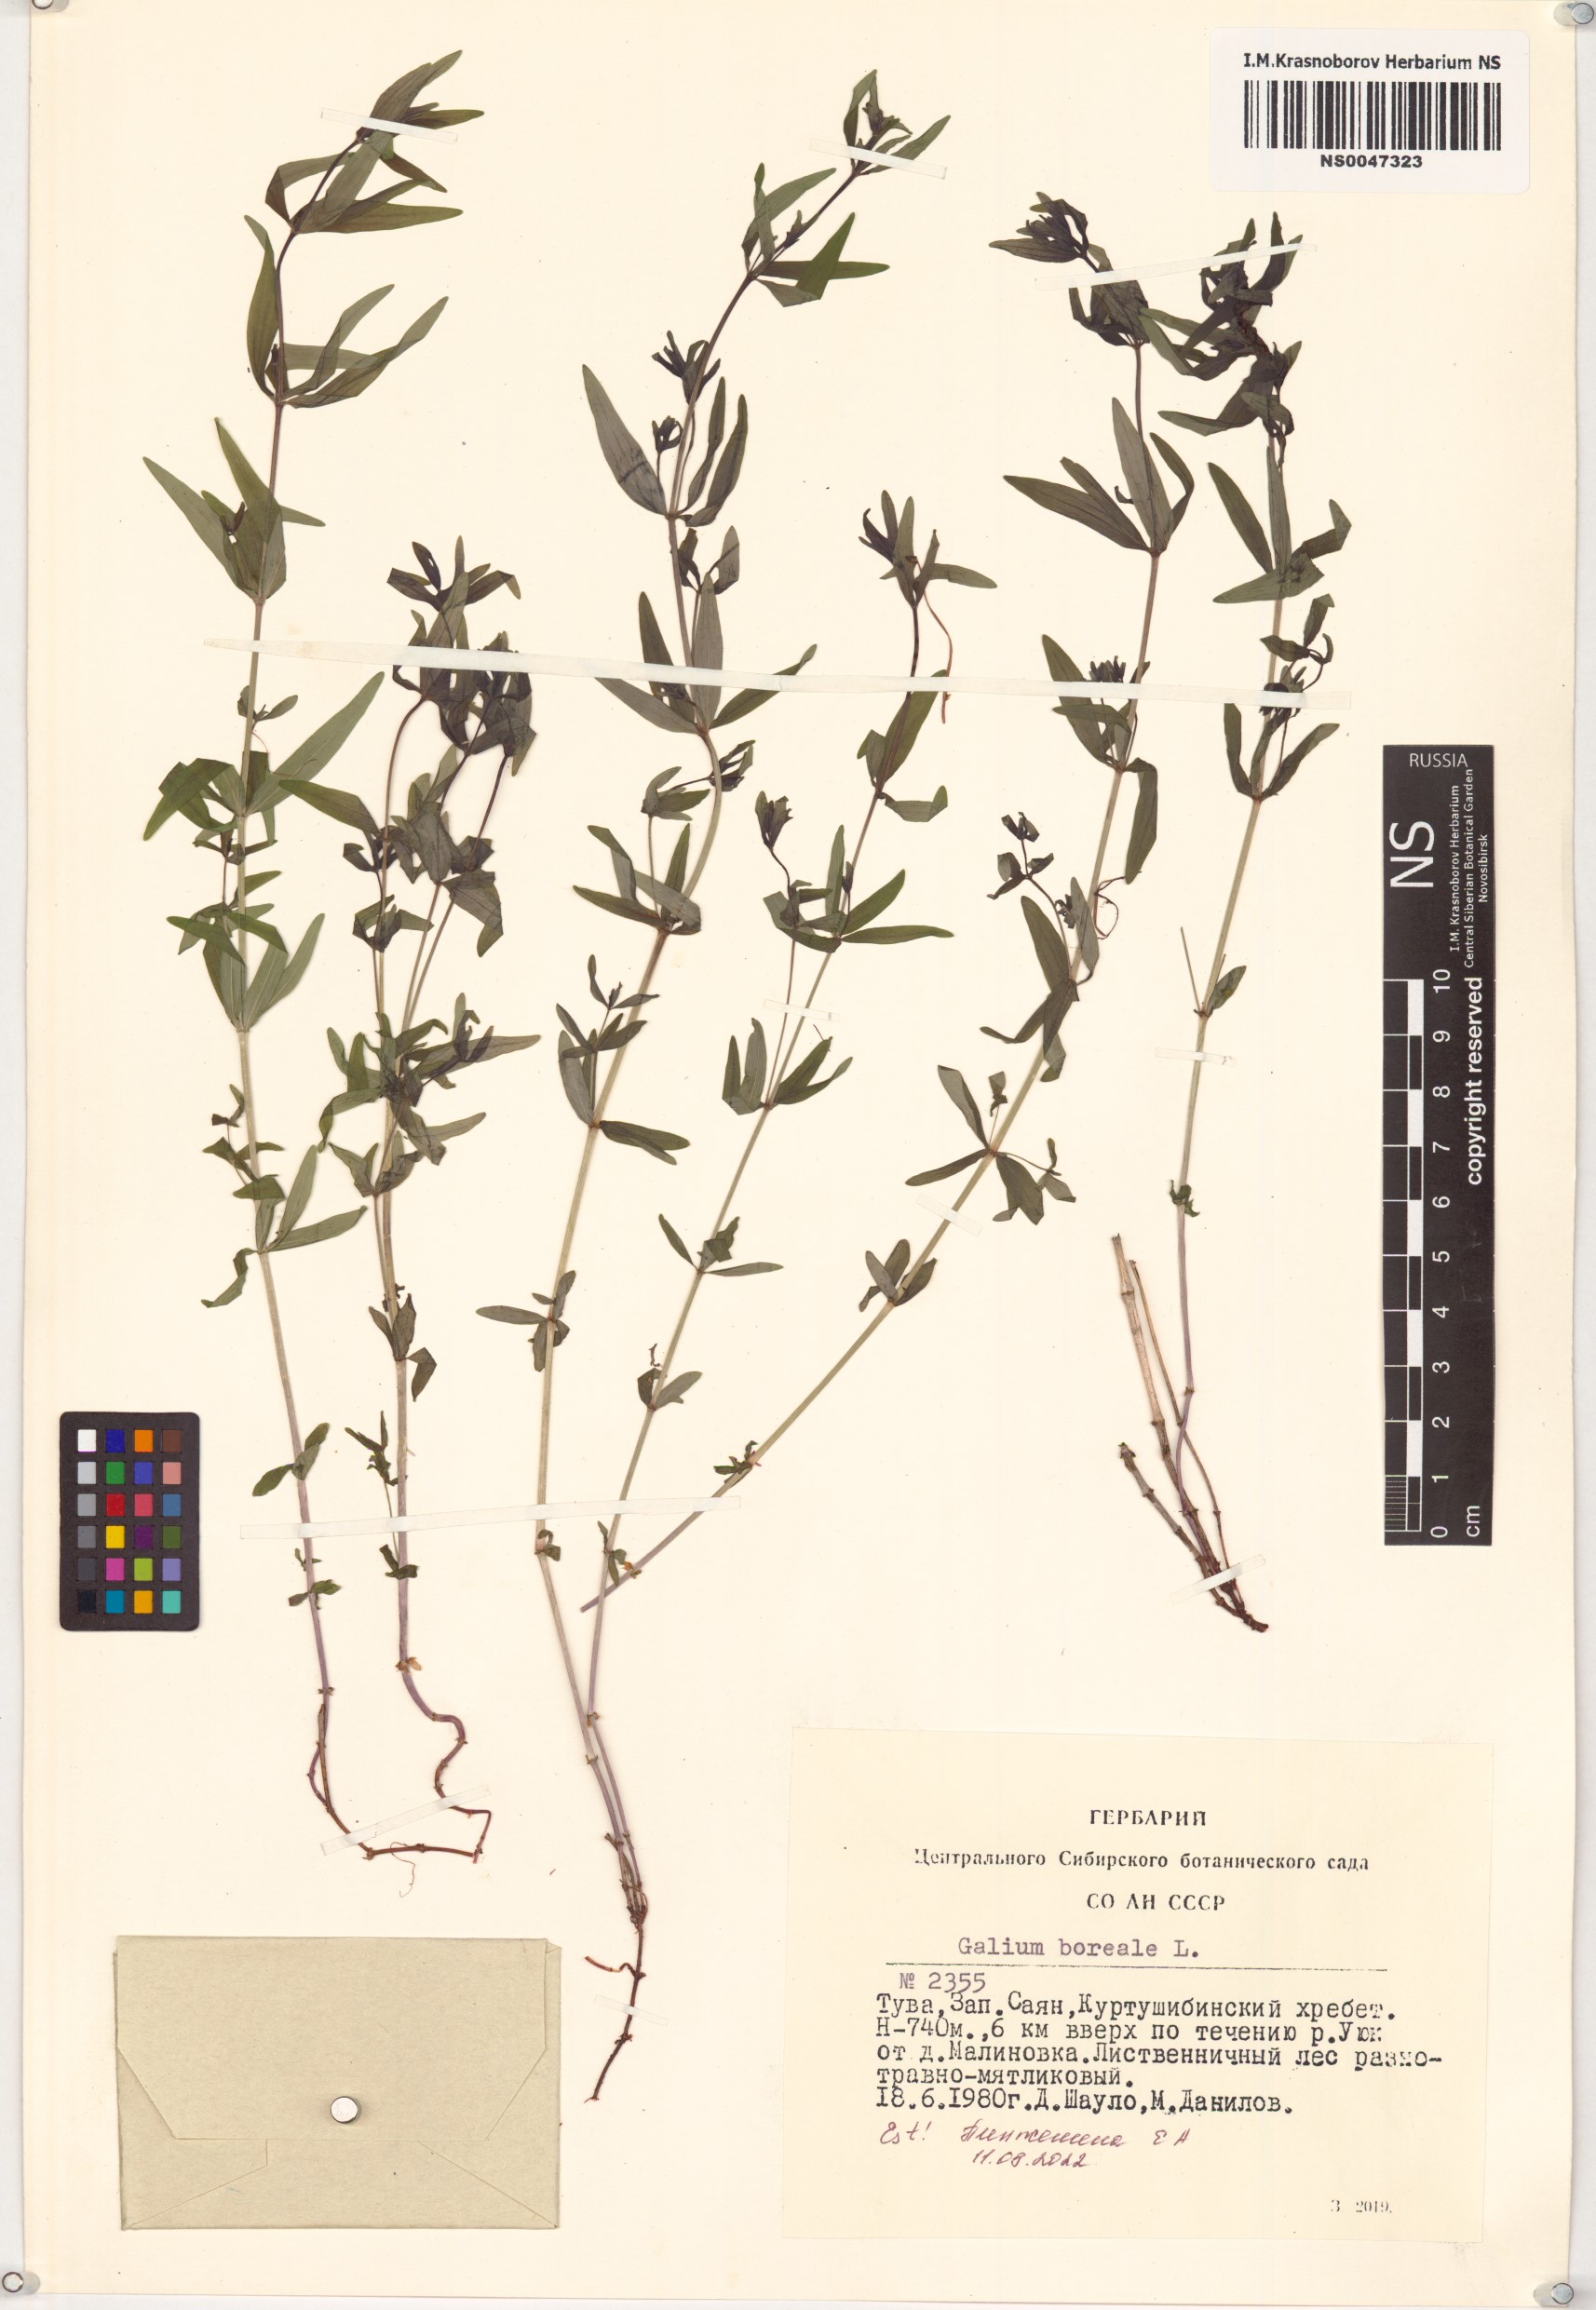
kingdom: Plantae
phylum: Tracheophyta
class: Magnoliopsida
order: Gentianales
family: Rubiaceae
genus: Galium
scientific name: Galium boreale
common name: Northern bedstraw
